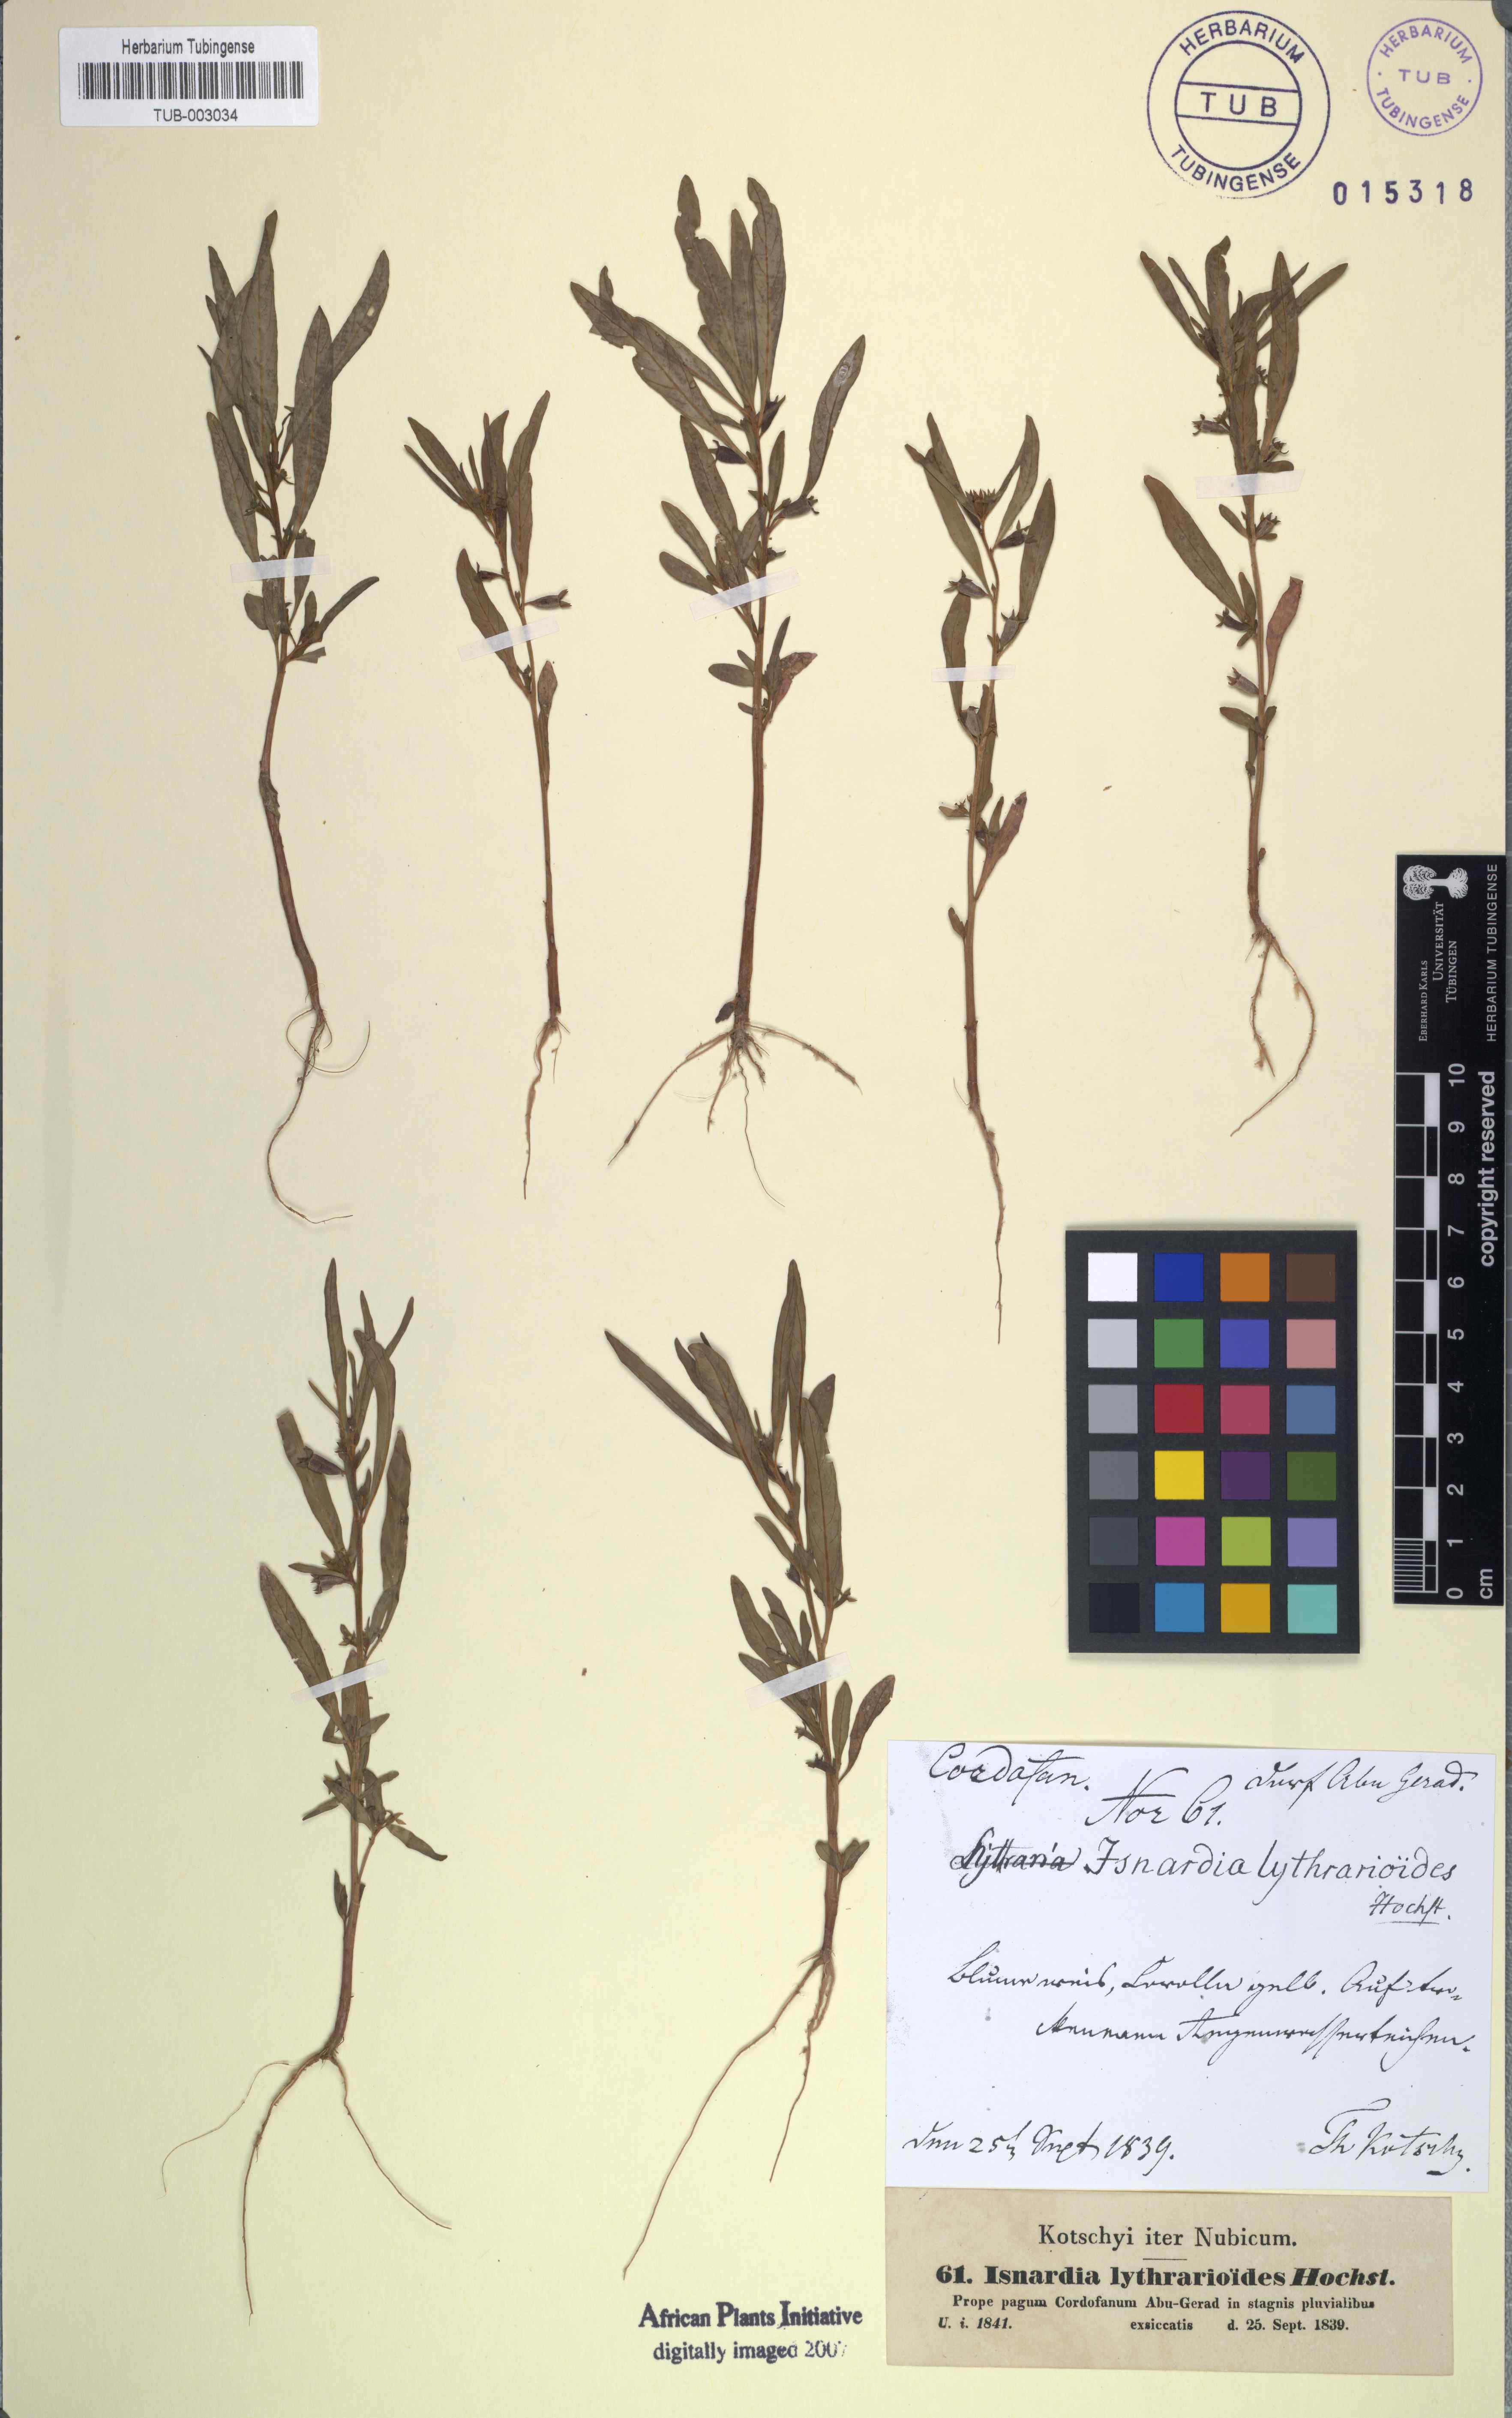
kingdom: Animalia
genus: Isnardia
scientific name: Isnardia
